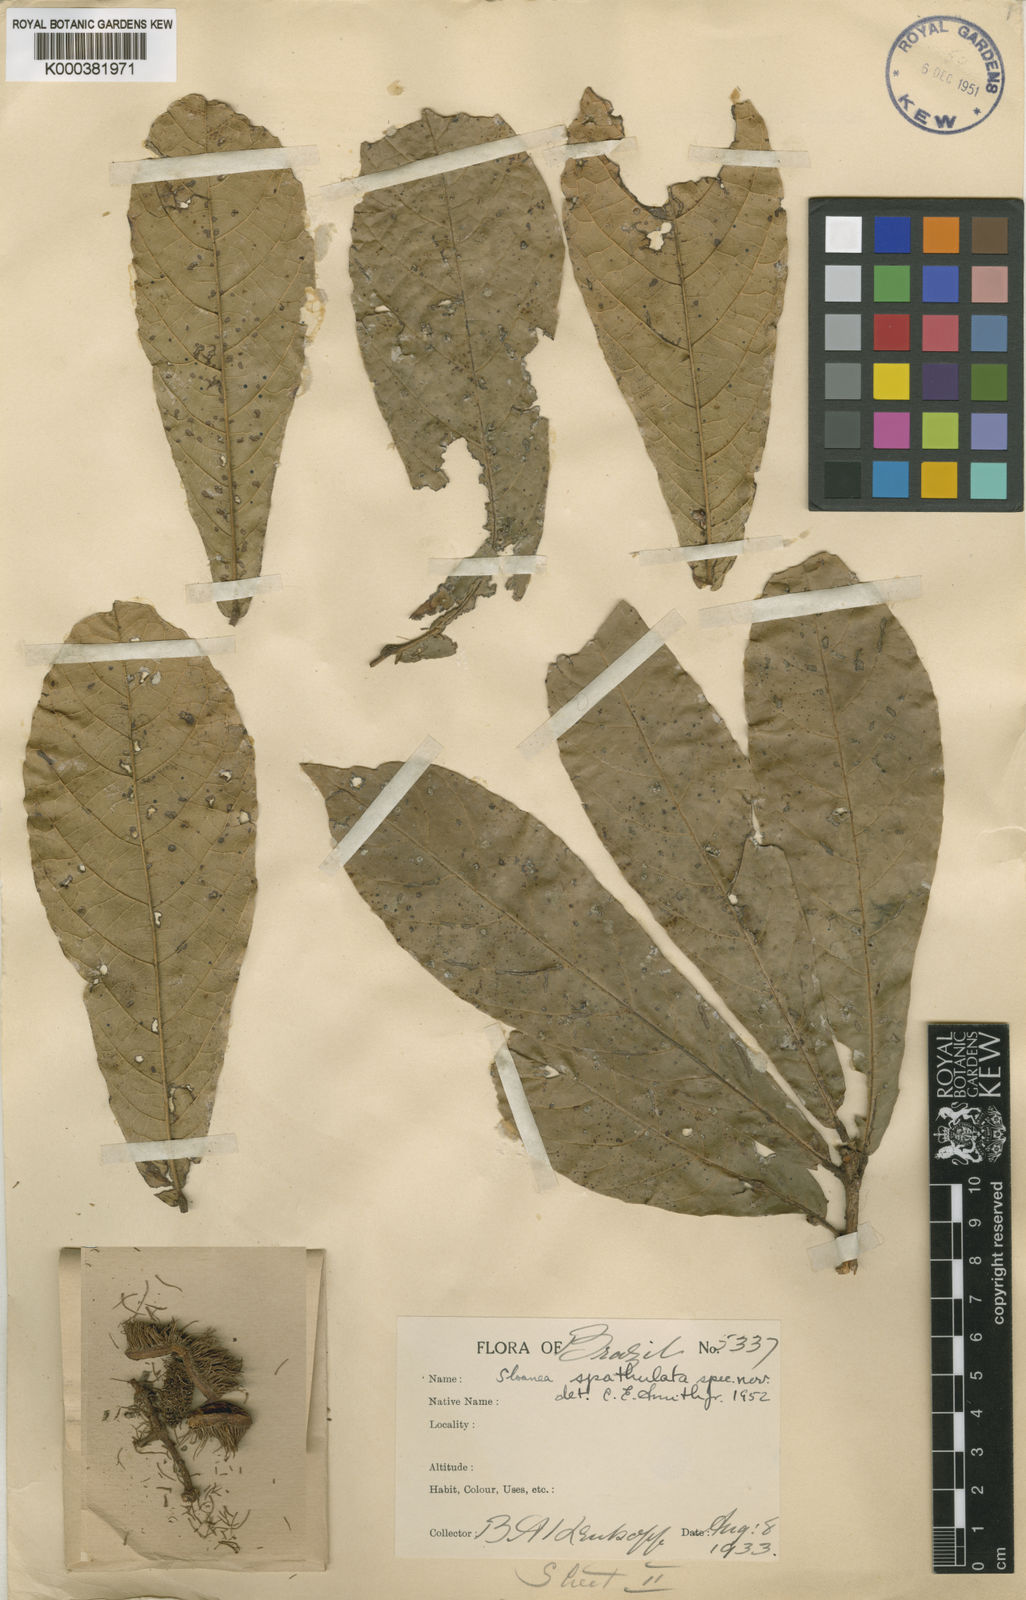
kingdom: Plantae
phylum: Tracheophyta
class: Magnoliopsida
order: Oxalidales
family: Elaeocarpaceae
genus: Sloanea
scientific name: Sloanea spathulata
